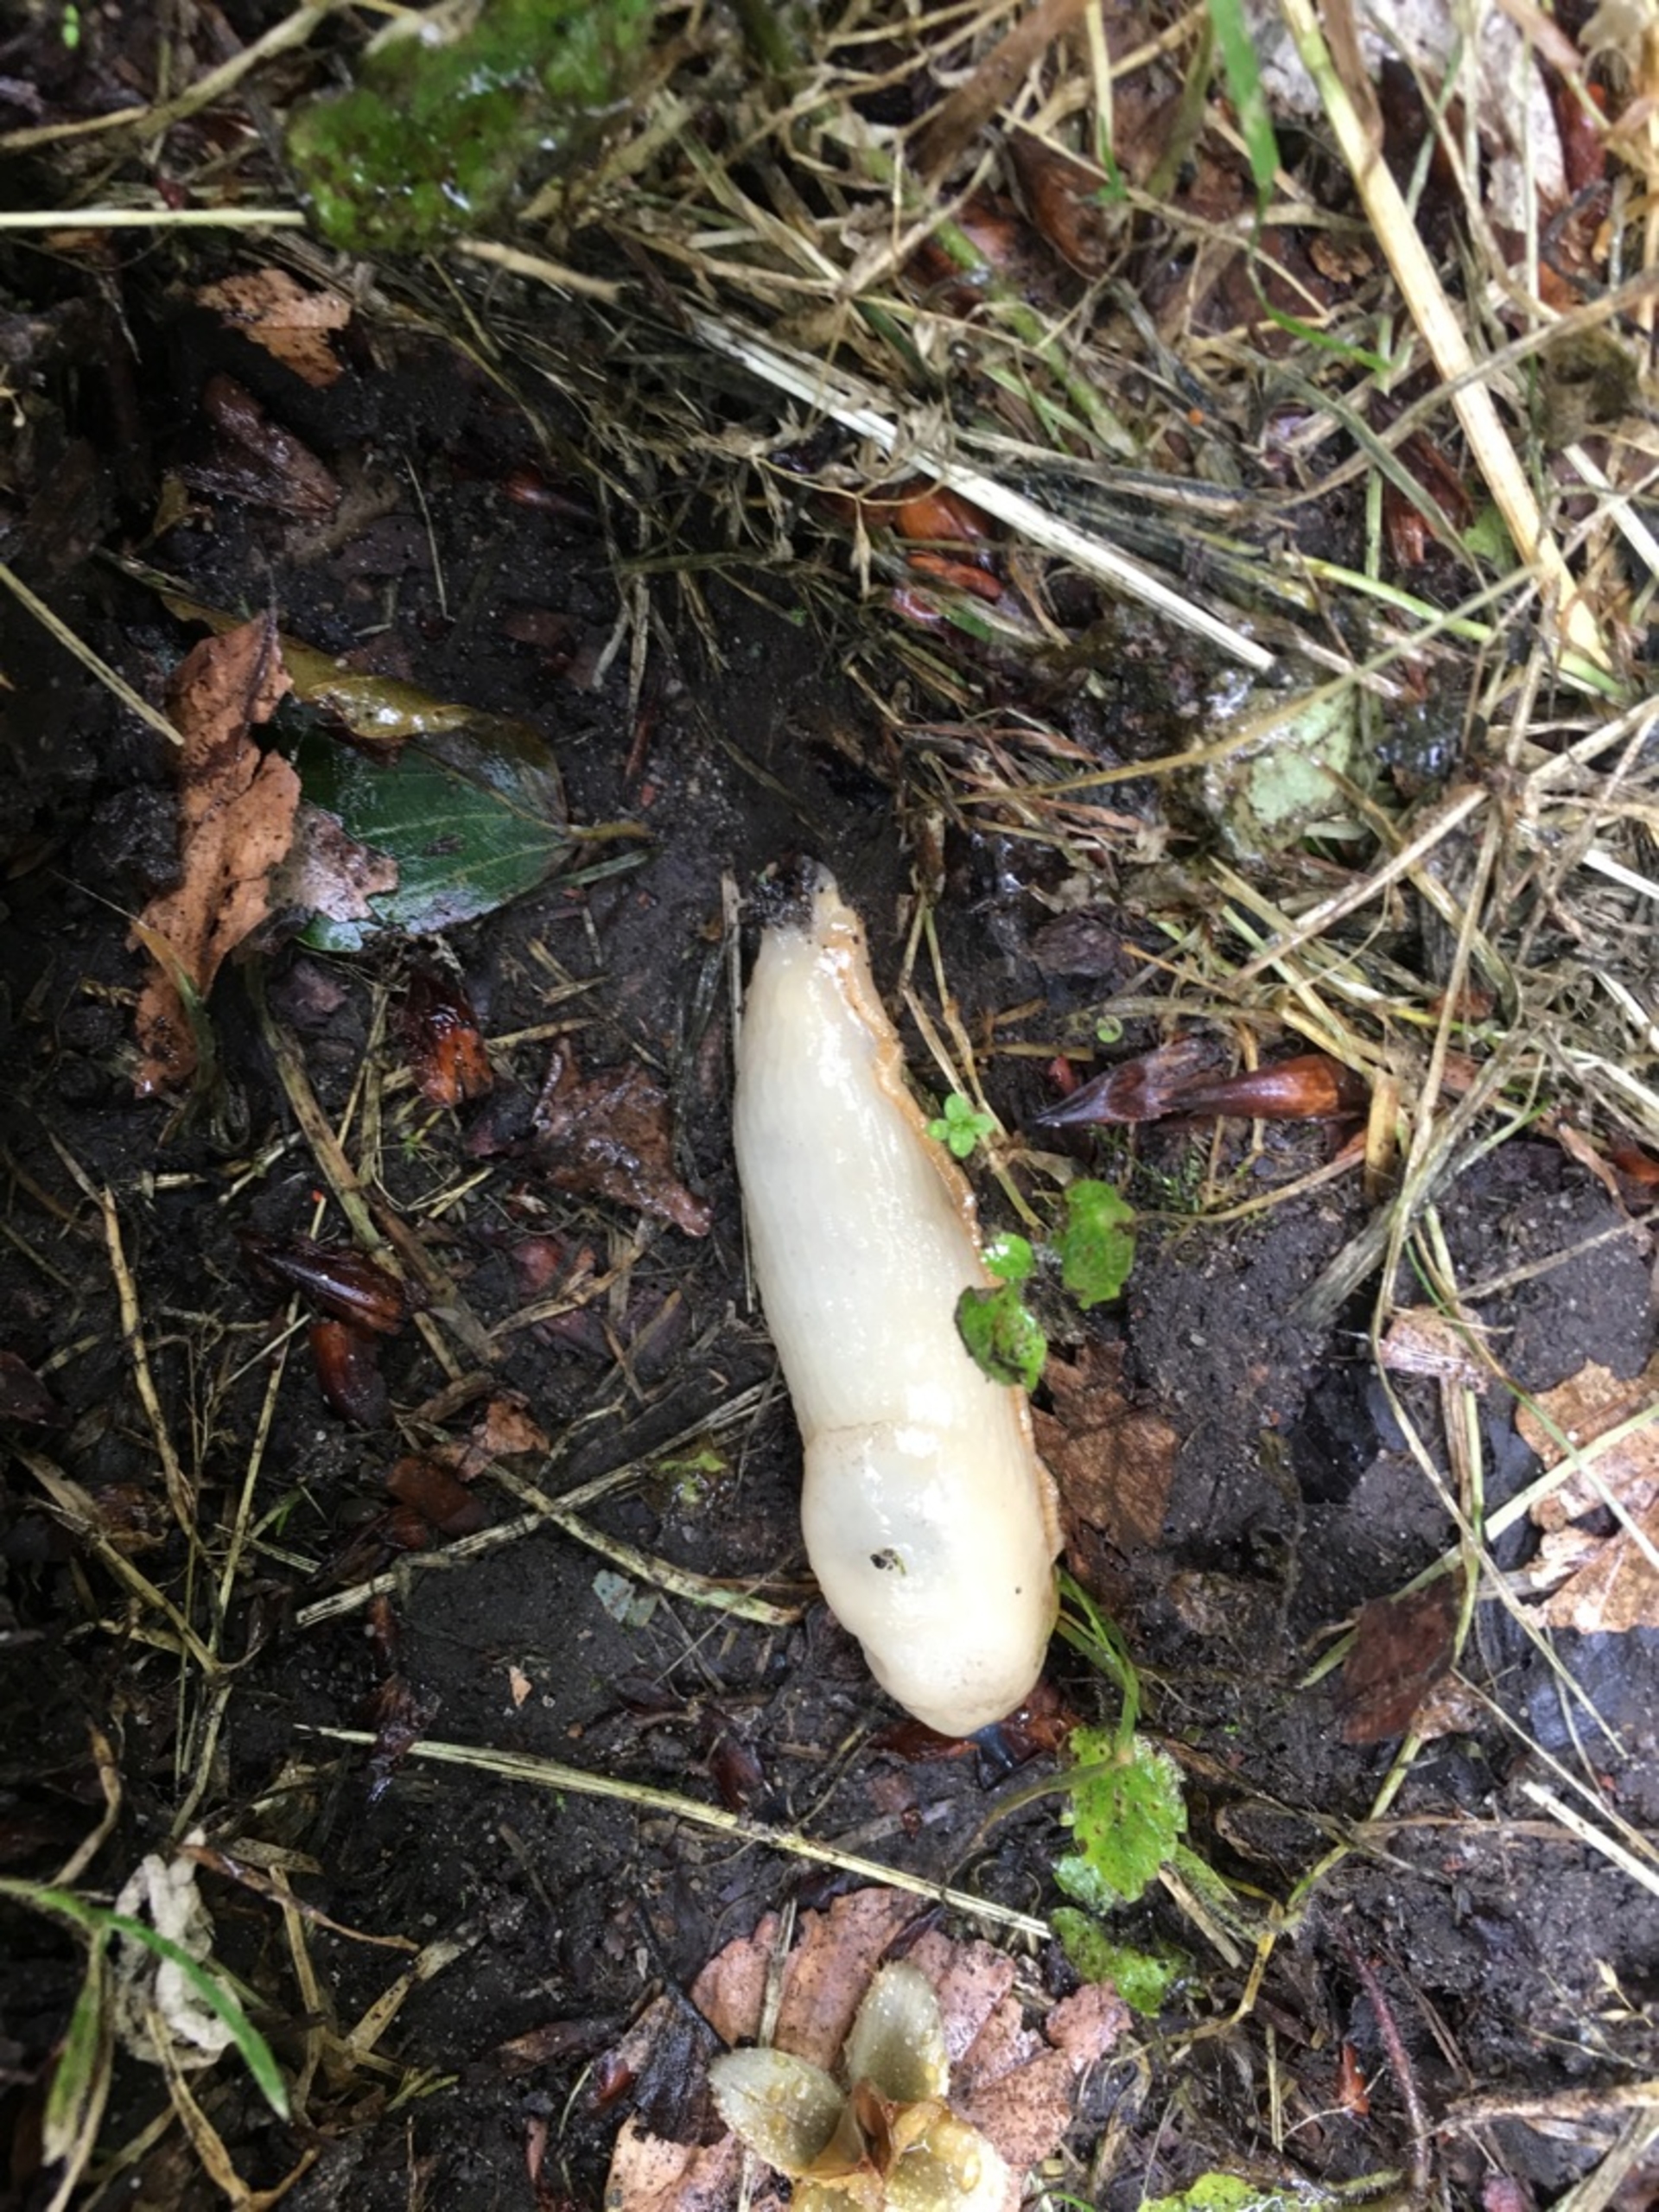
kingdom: Animalia
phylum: Mollusca
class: Gastropoda
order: Stylommatophora
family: Arionidae
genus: Arion
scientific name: Arion ater
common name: Sort skovsnegl
